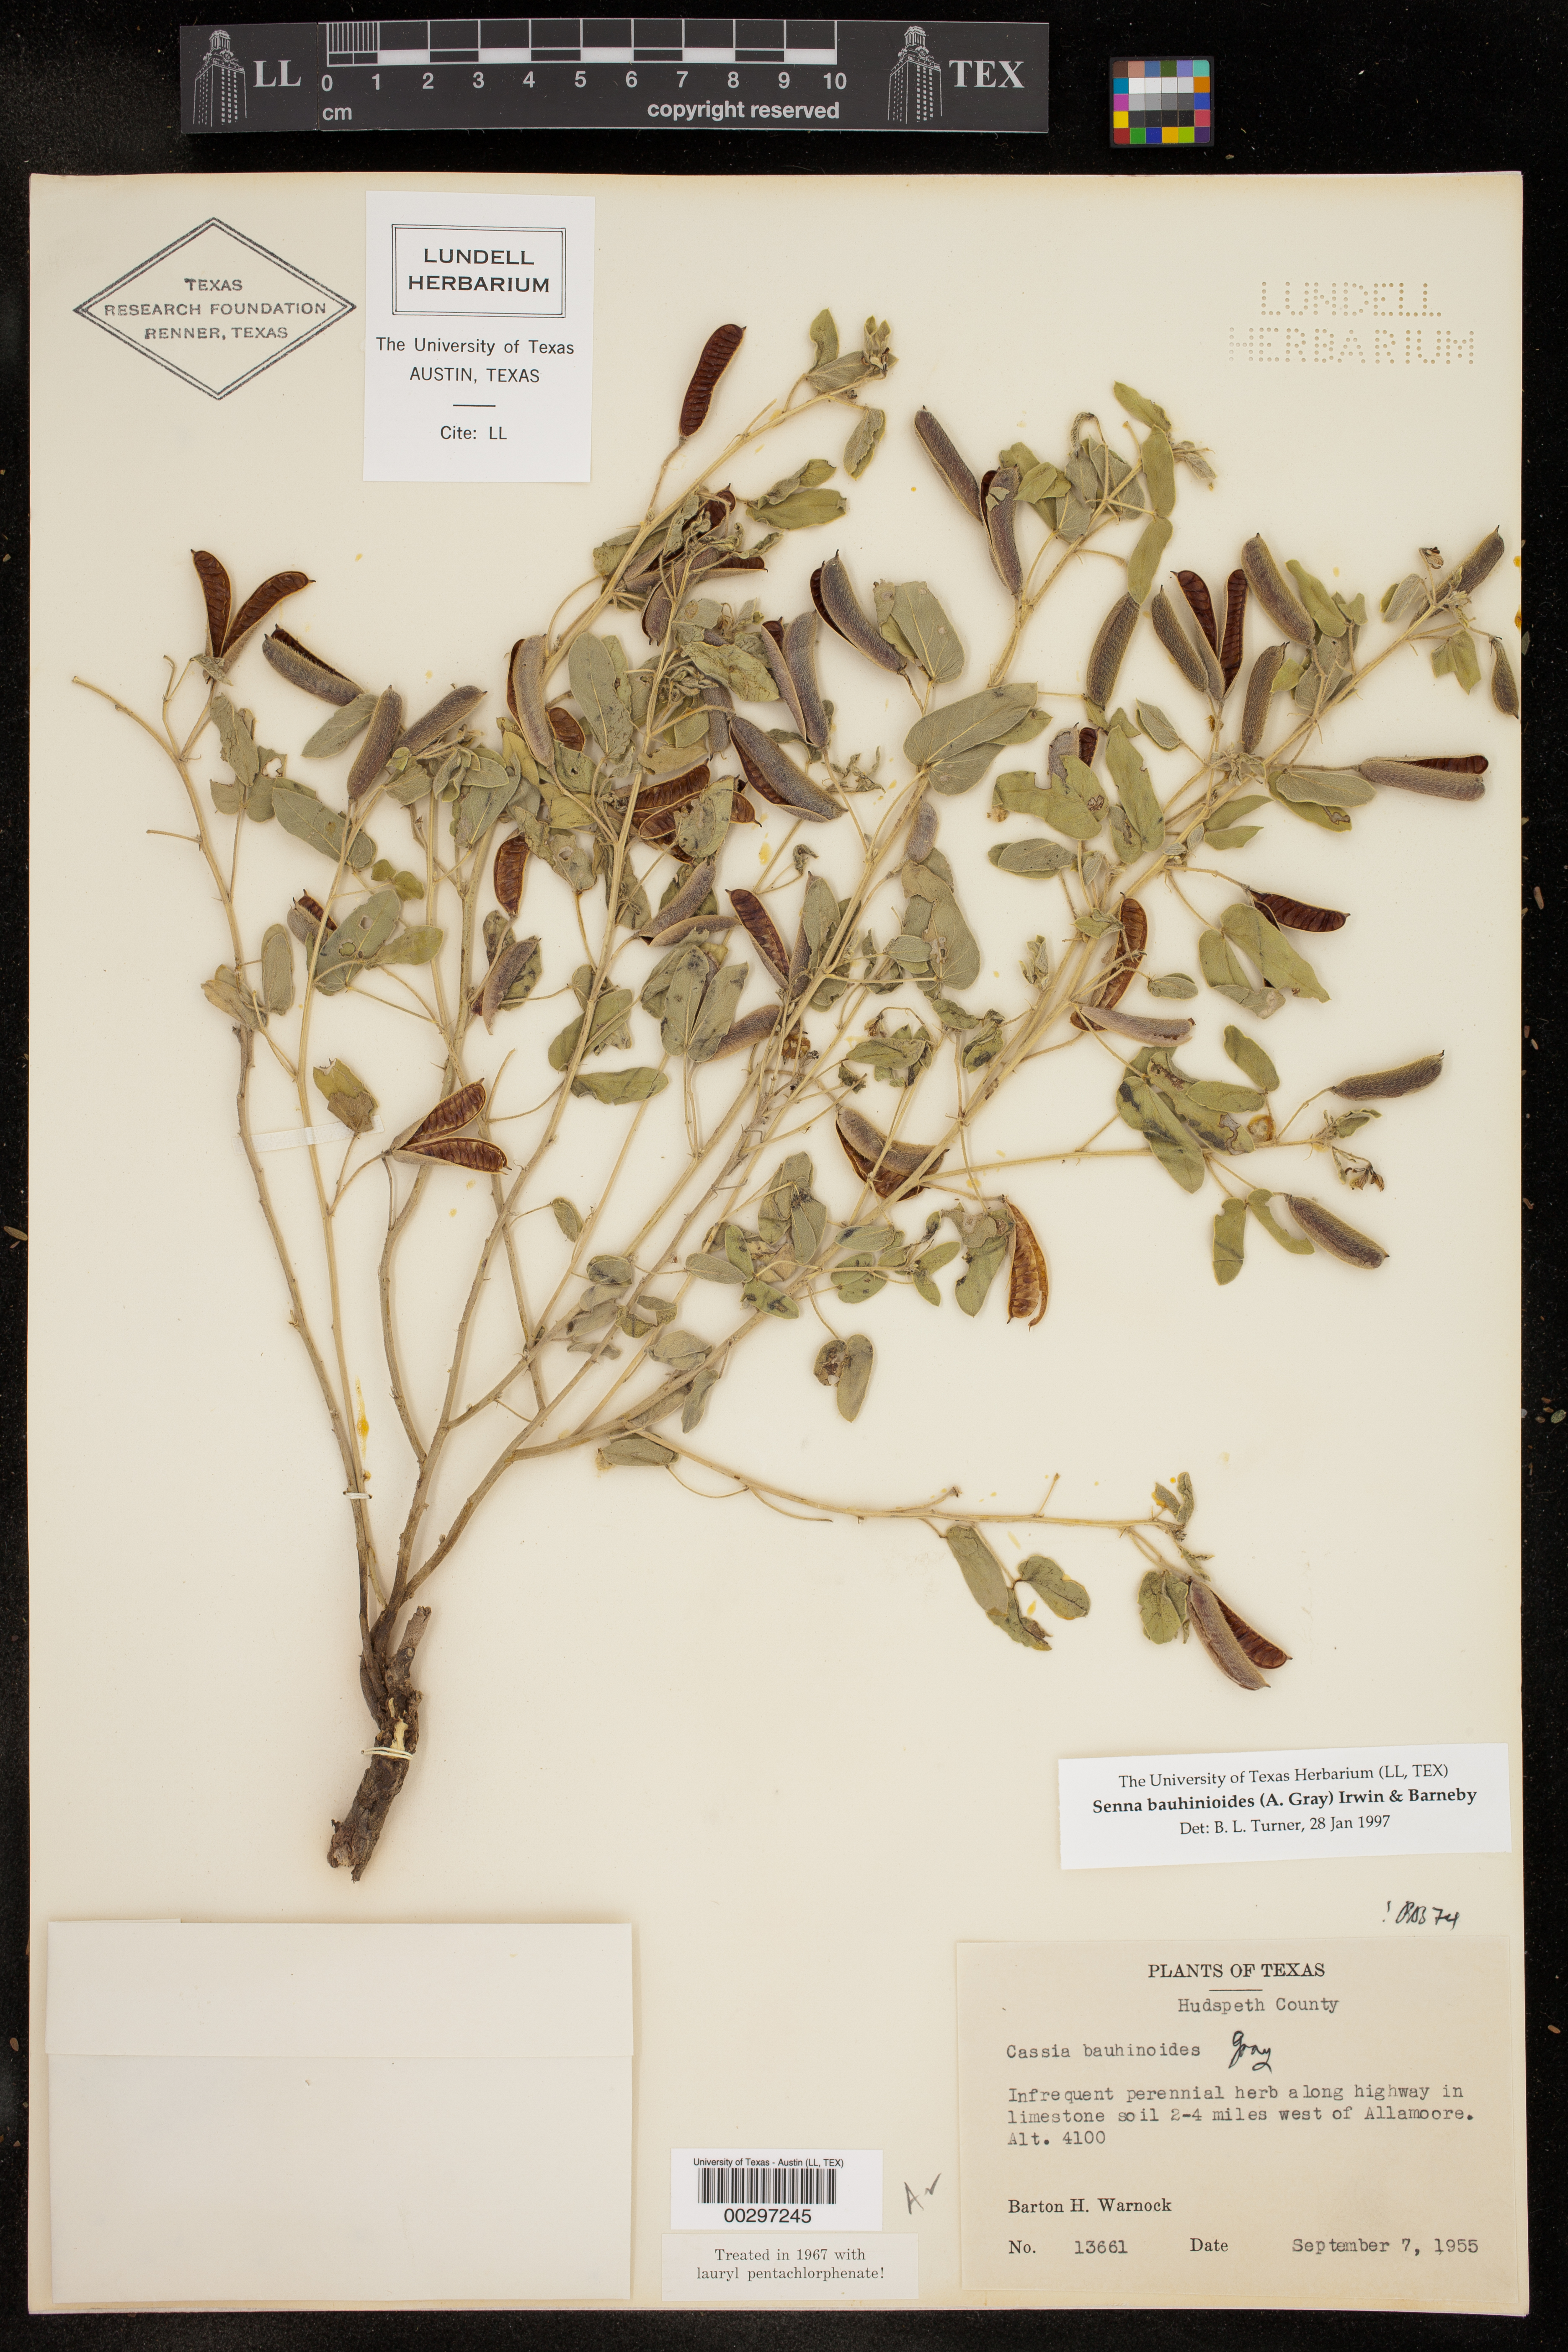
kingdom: Plantae
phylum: Tracheophyta
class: Magnoliopsida
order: Fabales
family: Fabaceae
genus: Senna
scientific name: Senna bauhinioides
